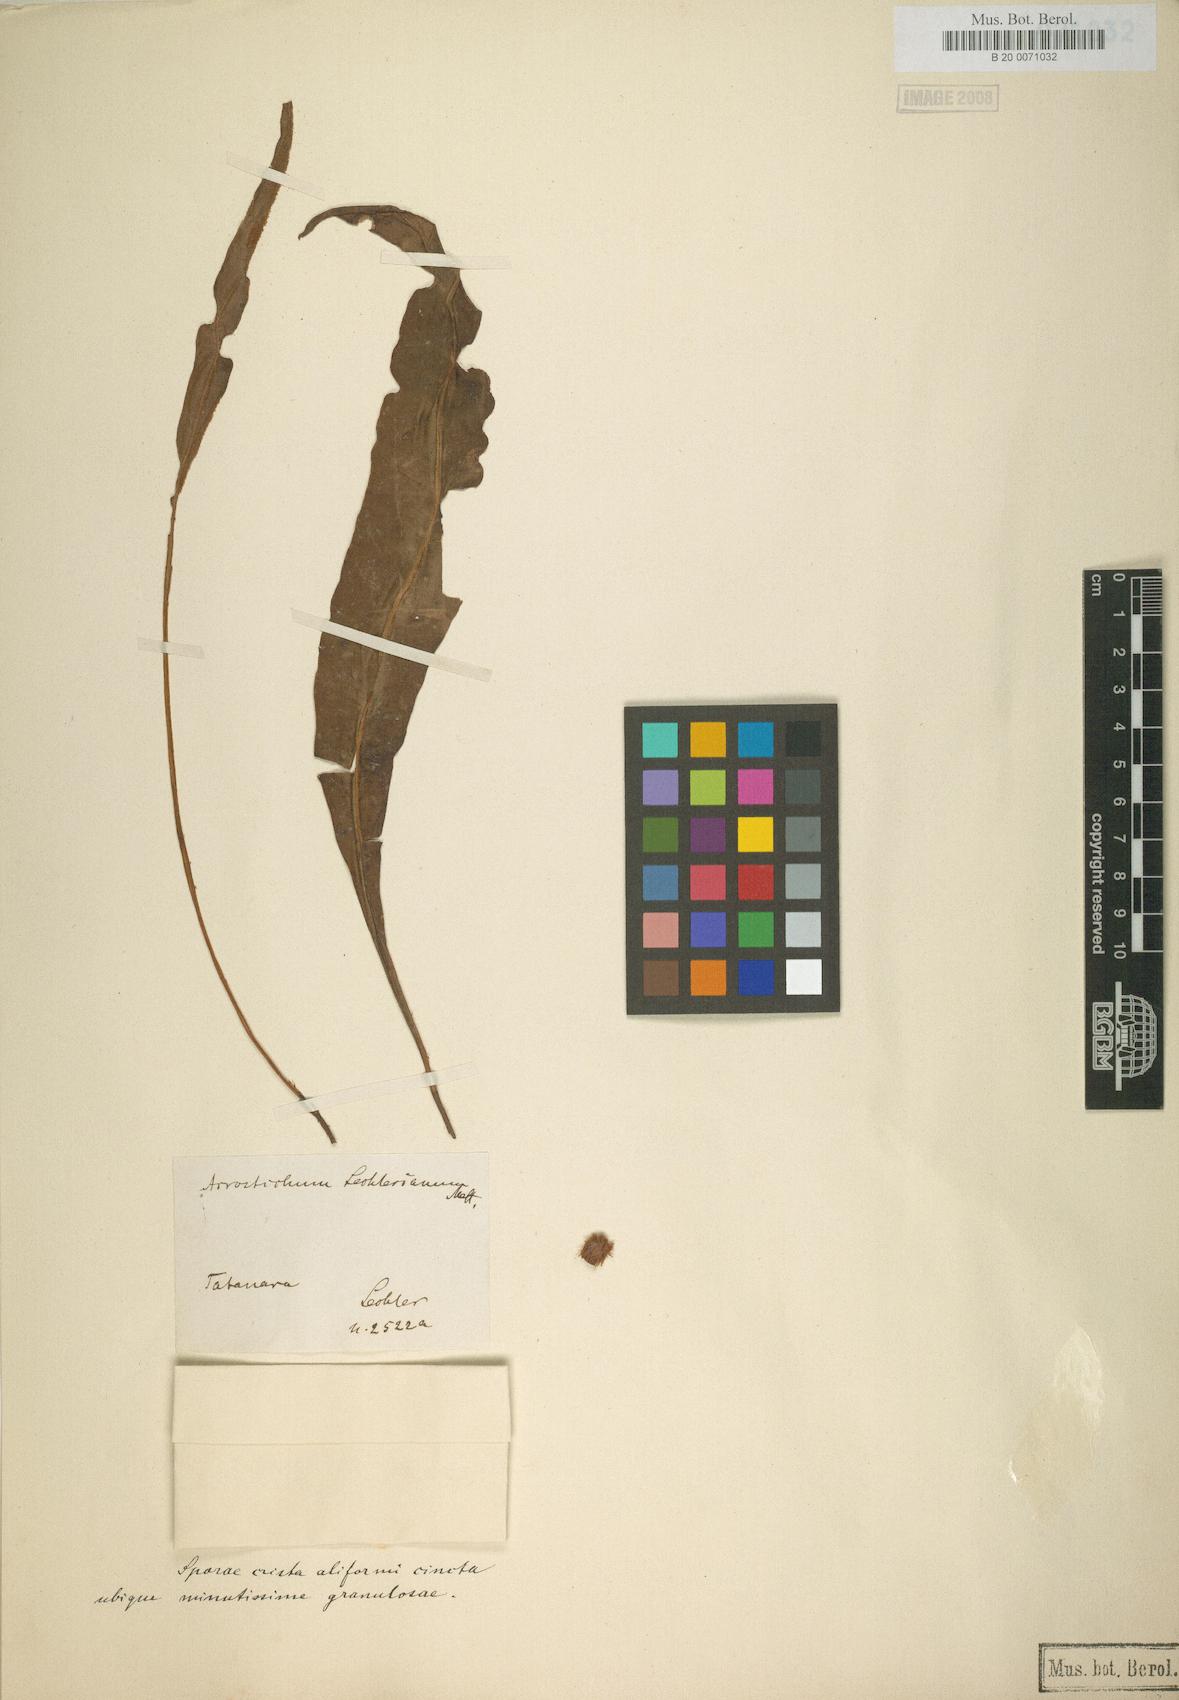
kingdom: Plantae
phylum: Tracheophyta
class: Polypodiopsida
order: Polypodiales
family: Dryopteridaceae
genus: Elaphoglossum
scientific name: Elaphoglossum lechlerianum
